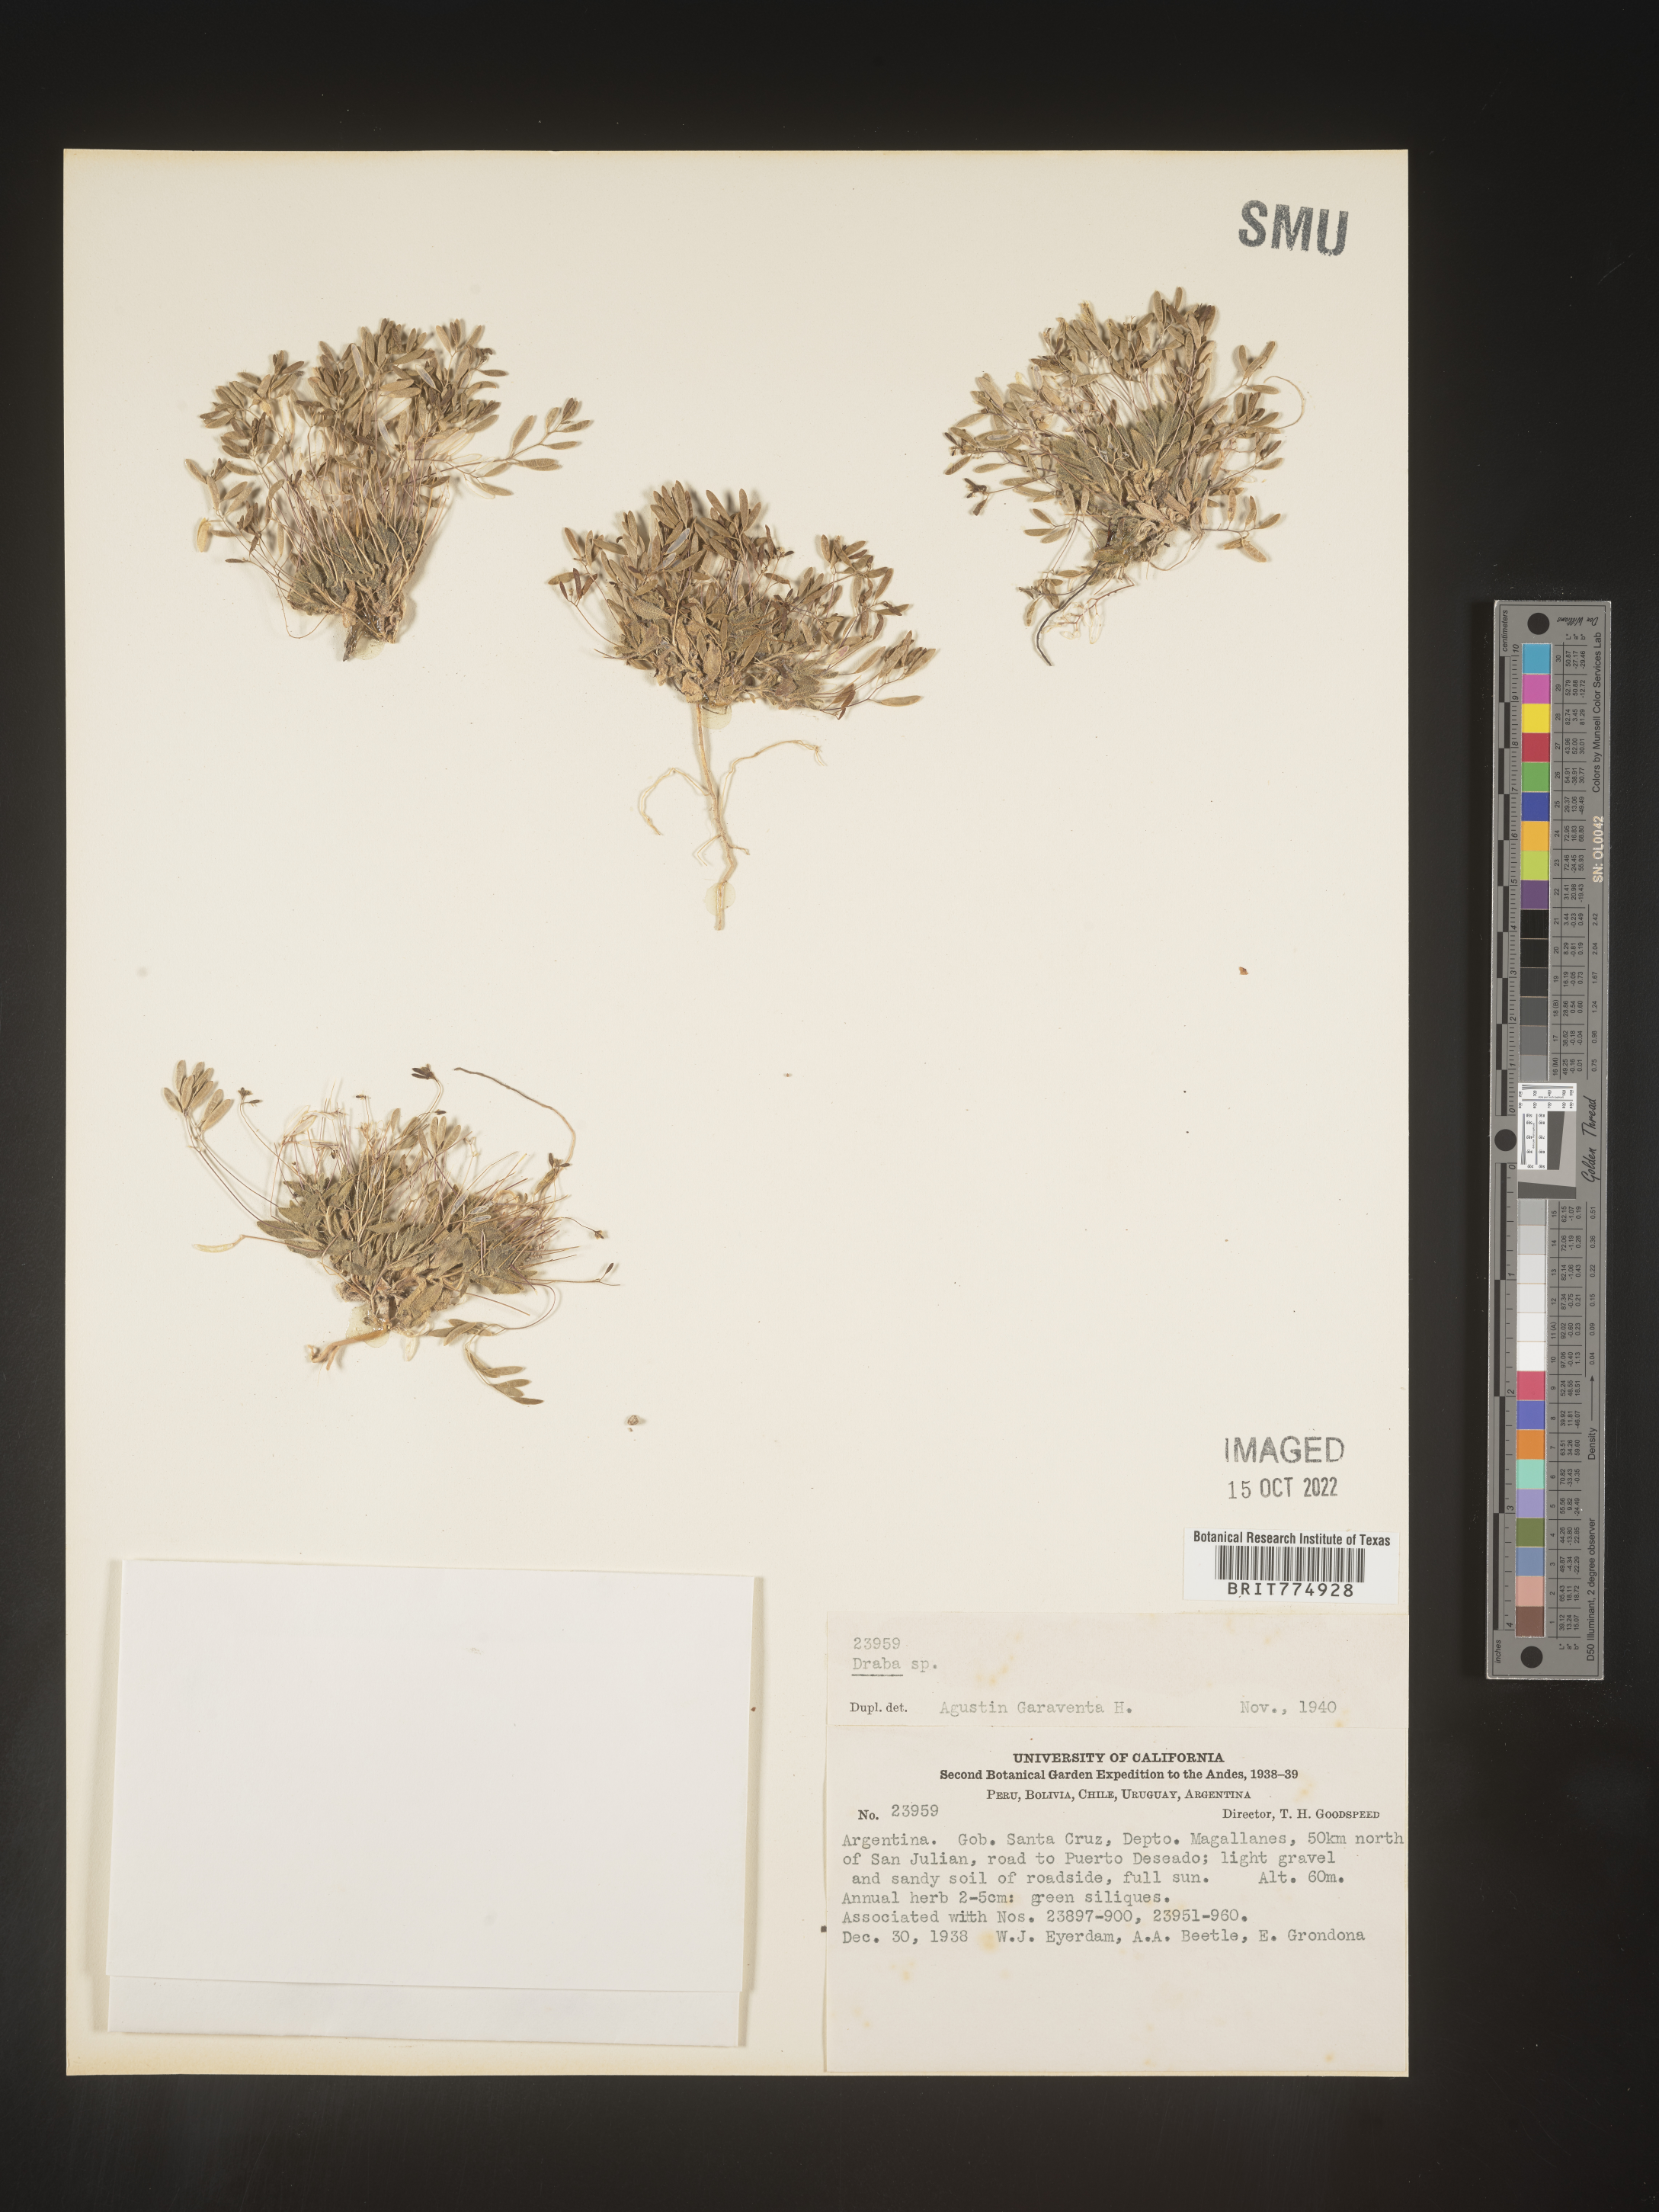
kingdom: Plantae
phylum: Tracheophyta
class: Magnoliopsida
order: Brassicales
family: Brassicaceae
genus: Draba
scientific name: Draba
